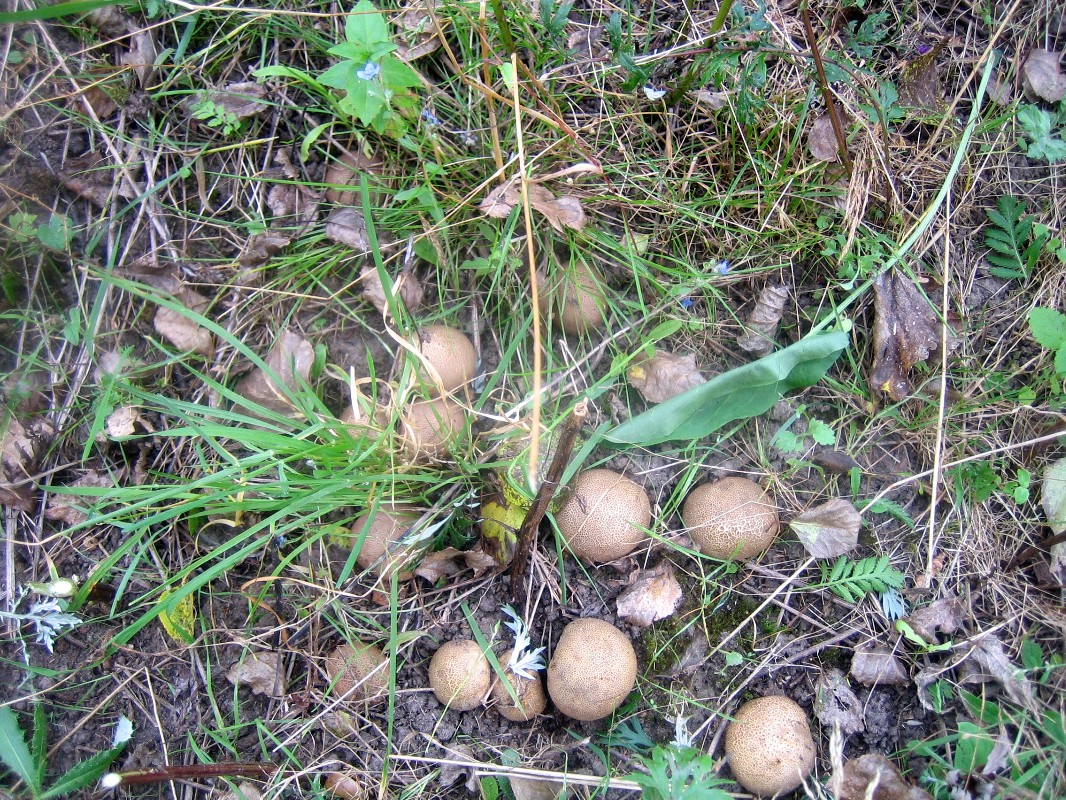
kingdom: Fungi
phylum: Basidiomycota
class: Agaricomycetes
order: Boletales
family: Sclerodermataceae
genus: Scleroderma
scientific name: Scleroderma citrinum
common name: almindelig bruskbold
